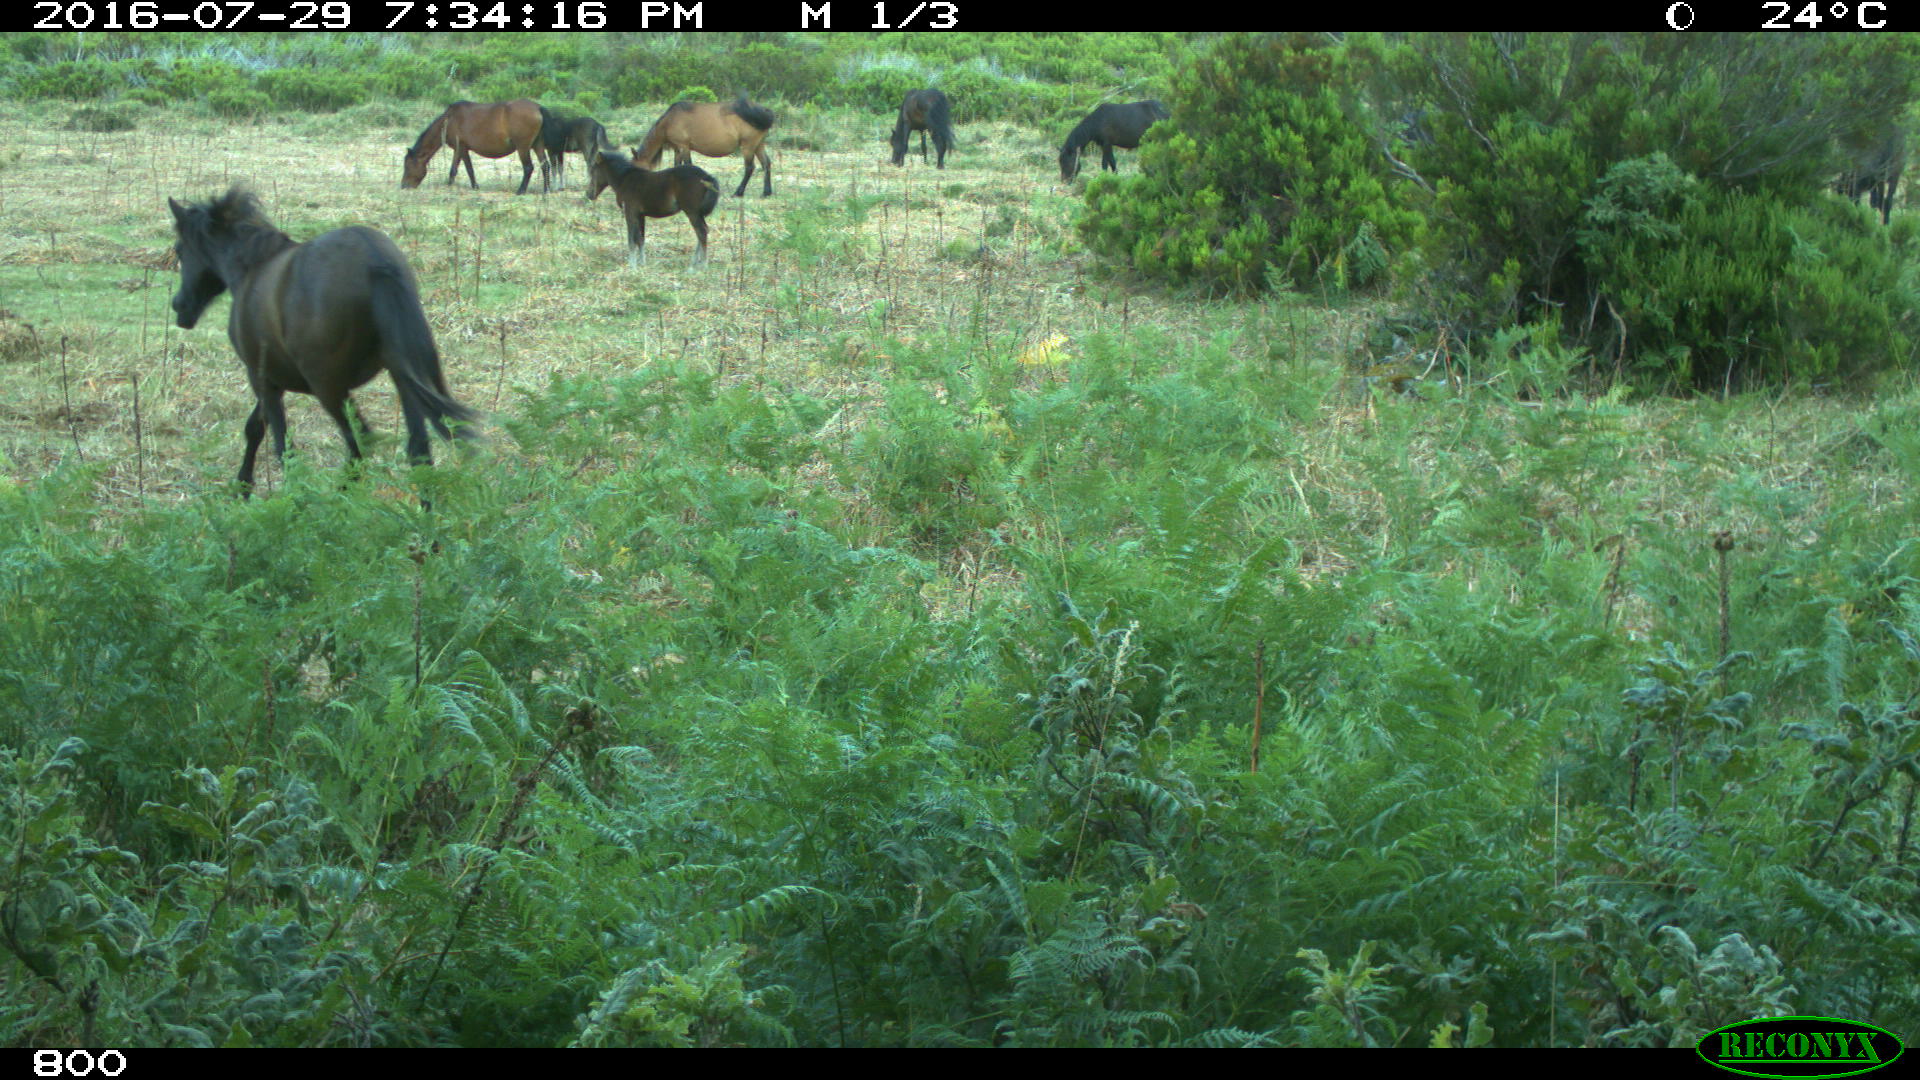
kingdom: Animalia
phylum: Chordata
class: Mammalia
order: Perissodactyla
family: Equidae
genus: Equus
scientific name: Equus caballus
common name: Horse
